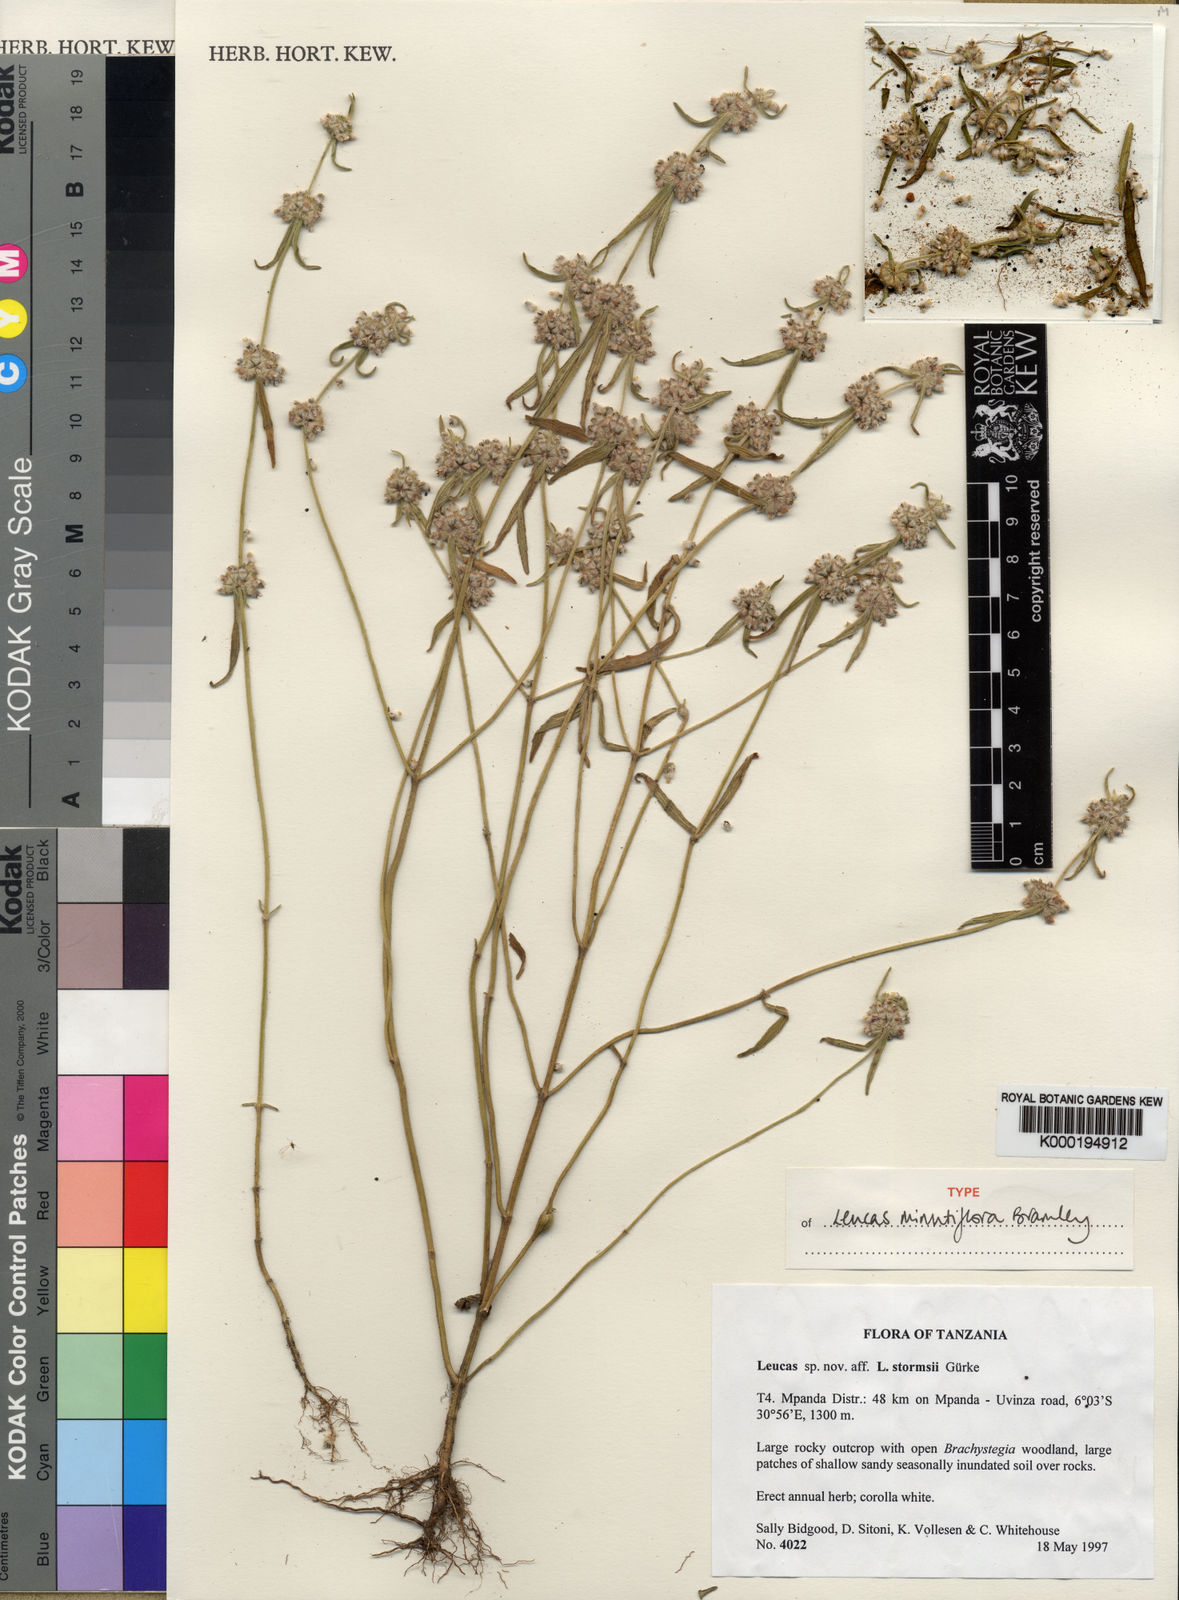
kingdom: Plantae
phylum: Tracheophyta
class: Magnoliopsida
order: Lamiales
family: Lamiaceae
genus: Leucas
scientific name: Leucas minutiflora
